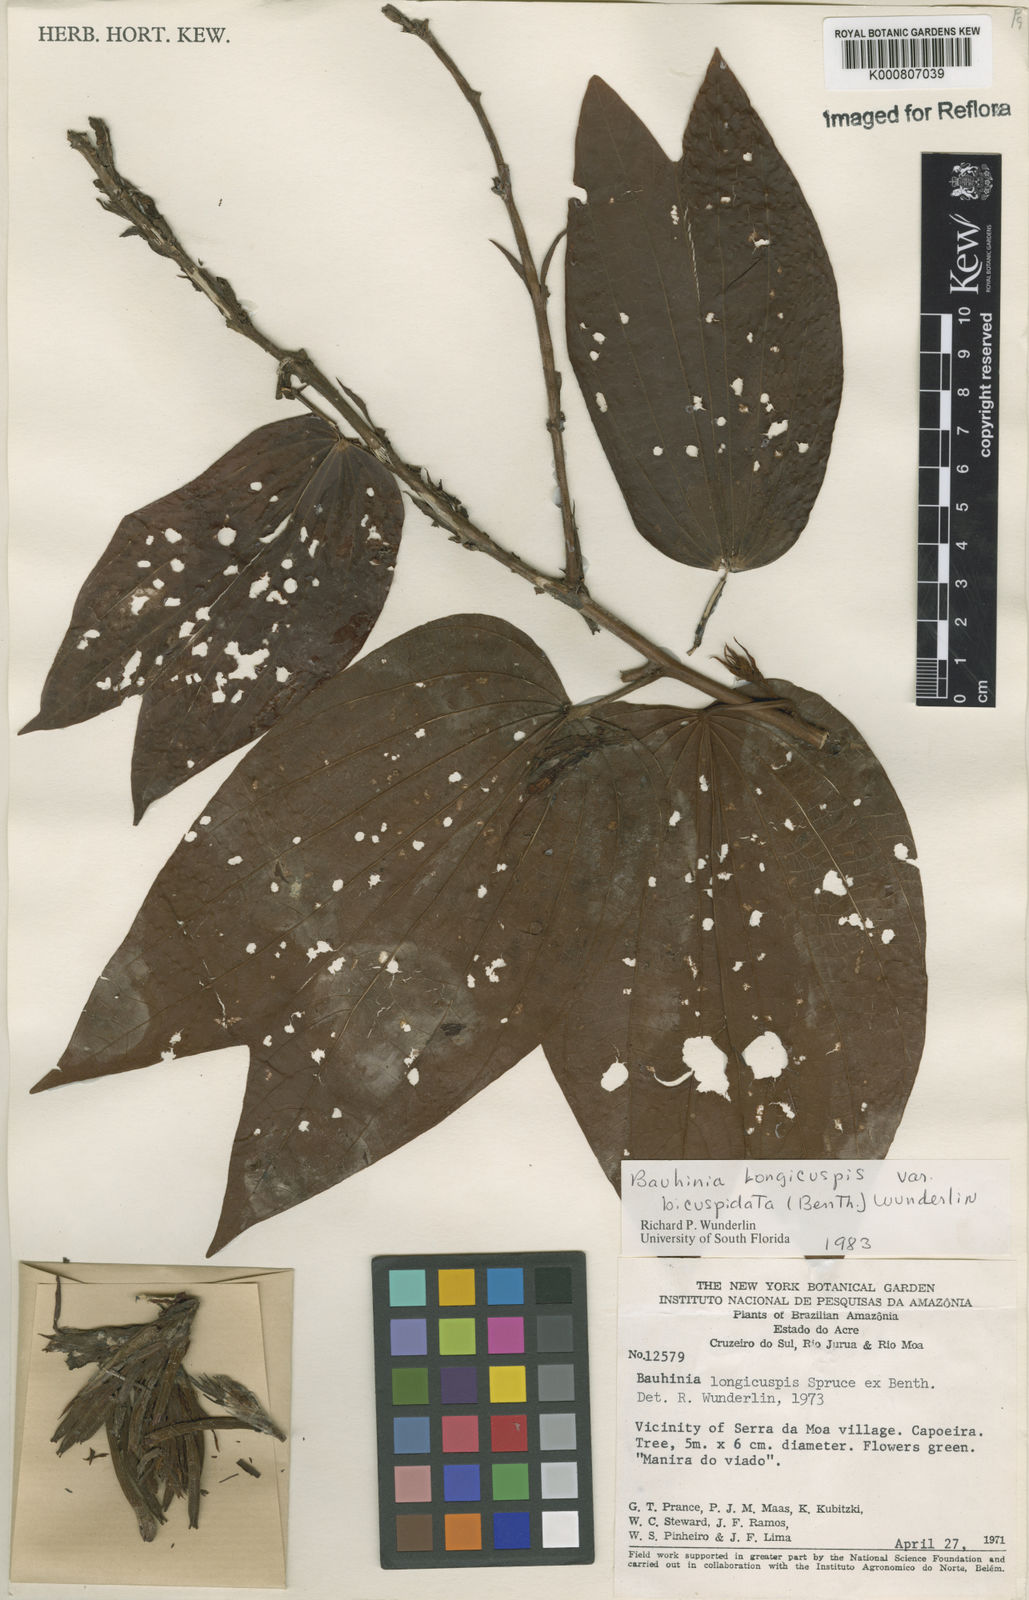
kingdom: Plantae
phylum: Tracheophyta
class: Magnoliopsida
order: Fabales
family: Fabaceae
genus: Bauhinia
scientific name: Bauhinia longicuspis
